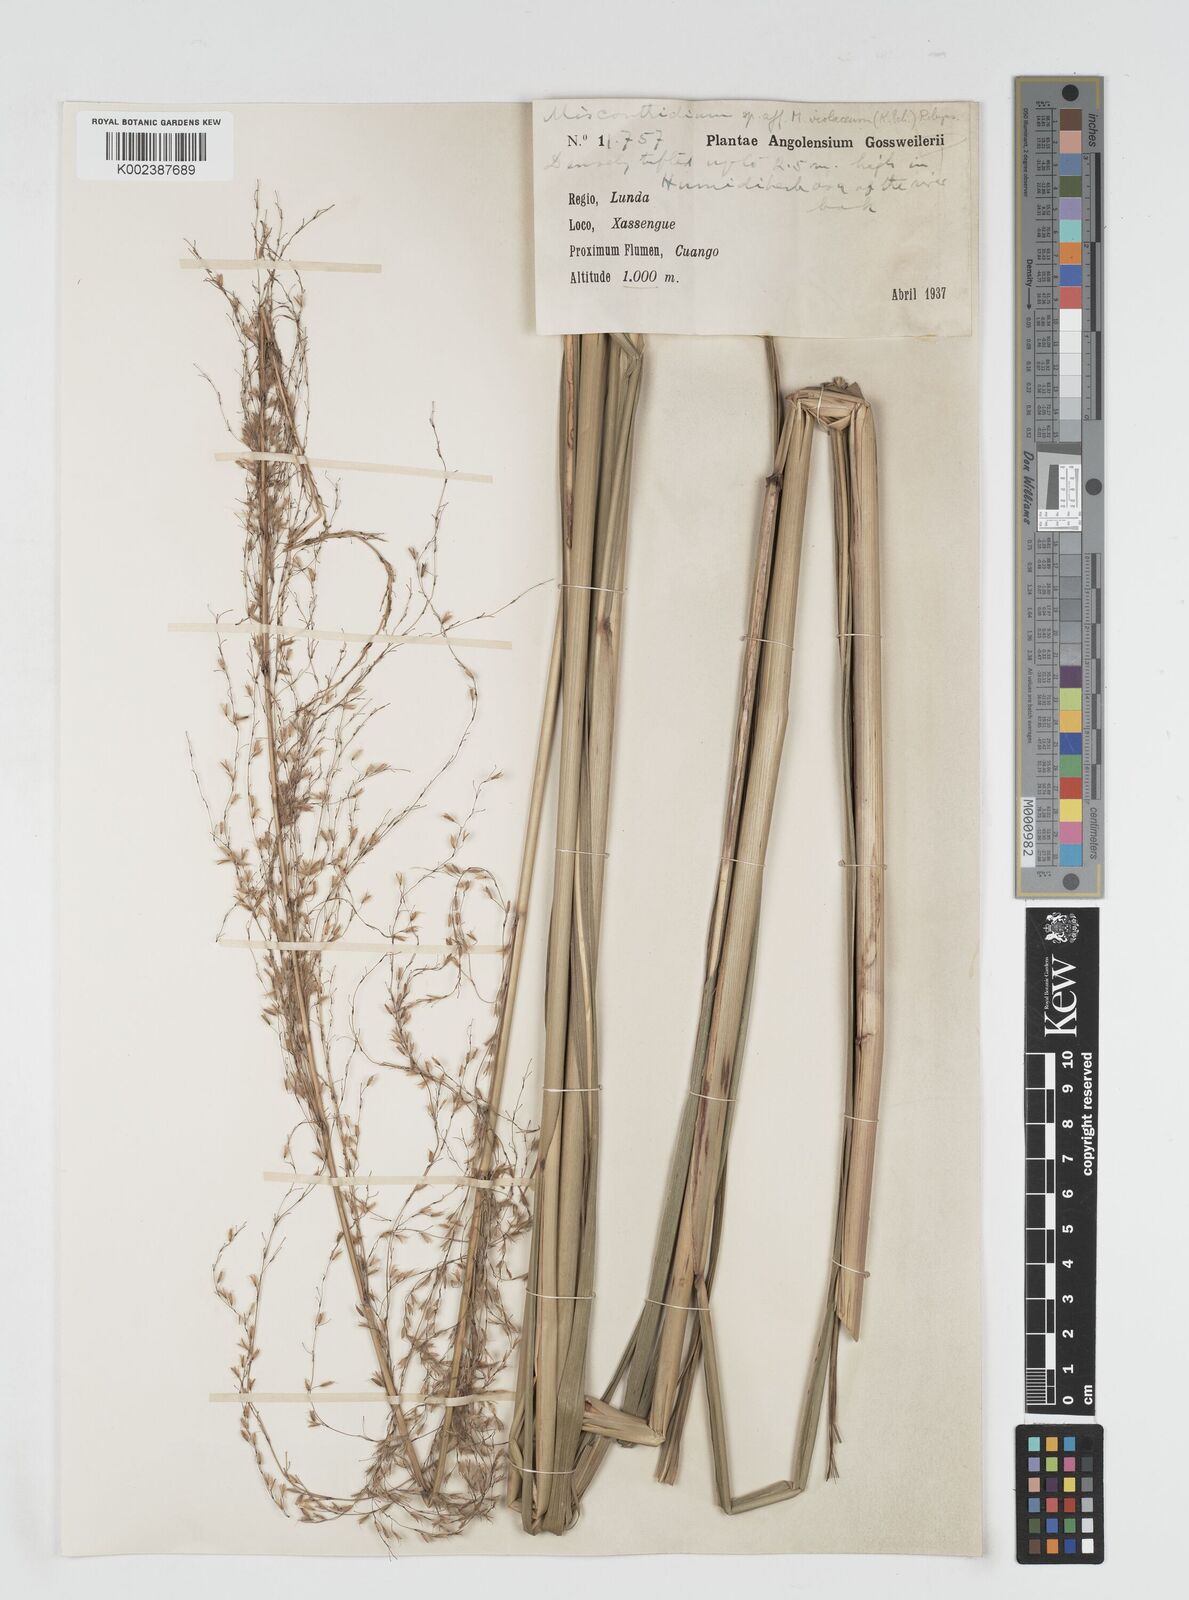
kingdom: Plantae
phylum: Tracheophyta
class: Liliopsida
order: Poales
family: Poaceae
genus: Miscanthus
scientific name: Miscanthus ecklonii
